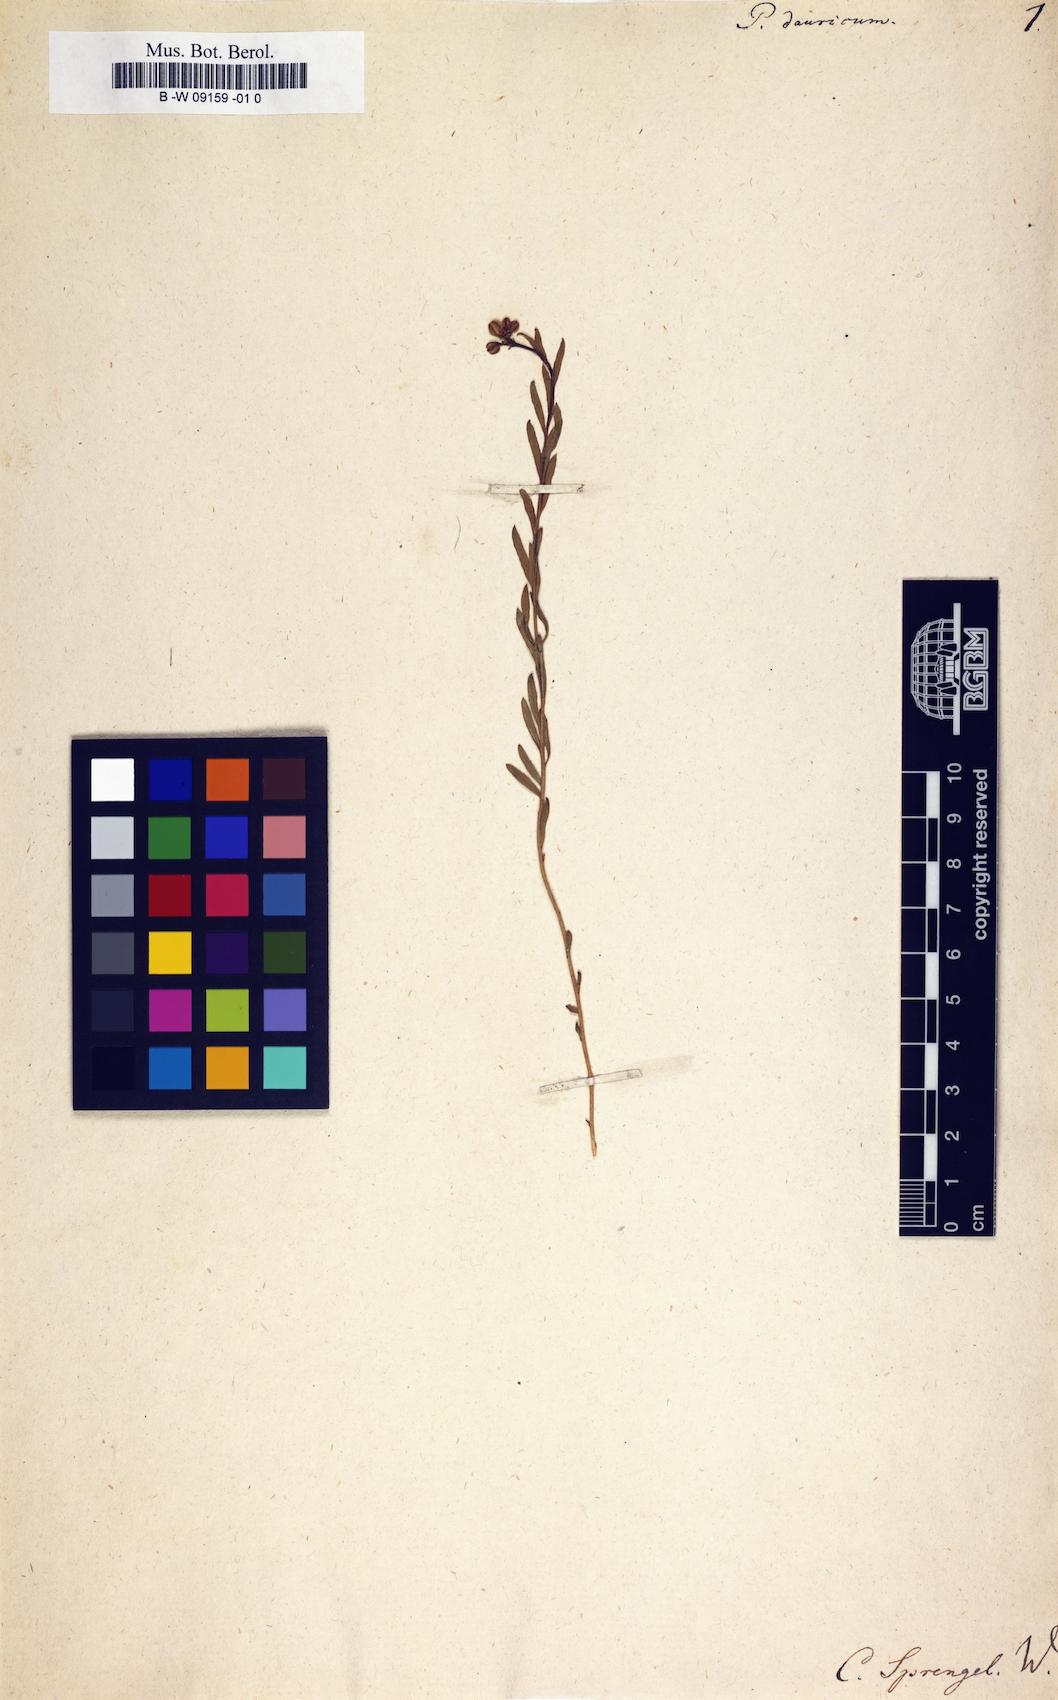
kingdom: Plantae
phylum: Tracheophyta
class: Magnoliopsida
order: Sapindales
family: Rutaceae
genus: Haplophyllum
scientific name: Haplophyllum dauricum
